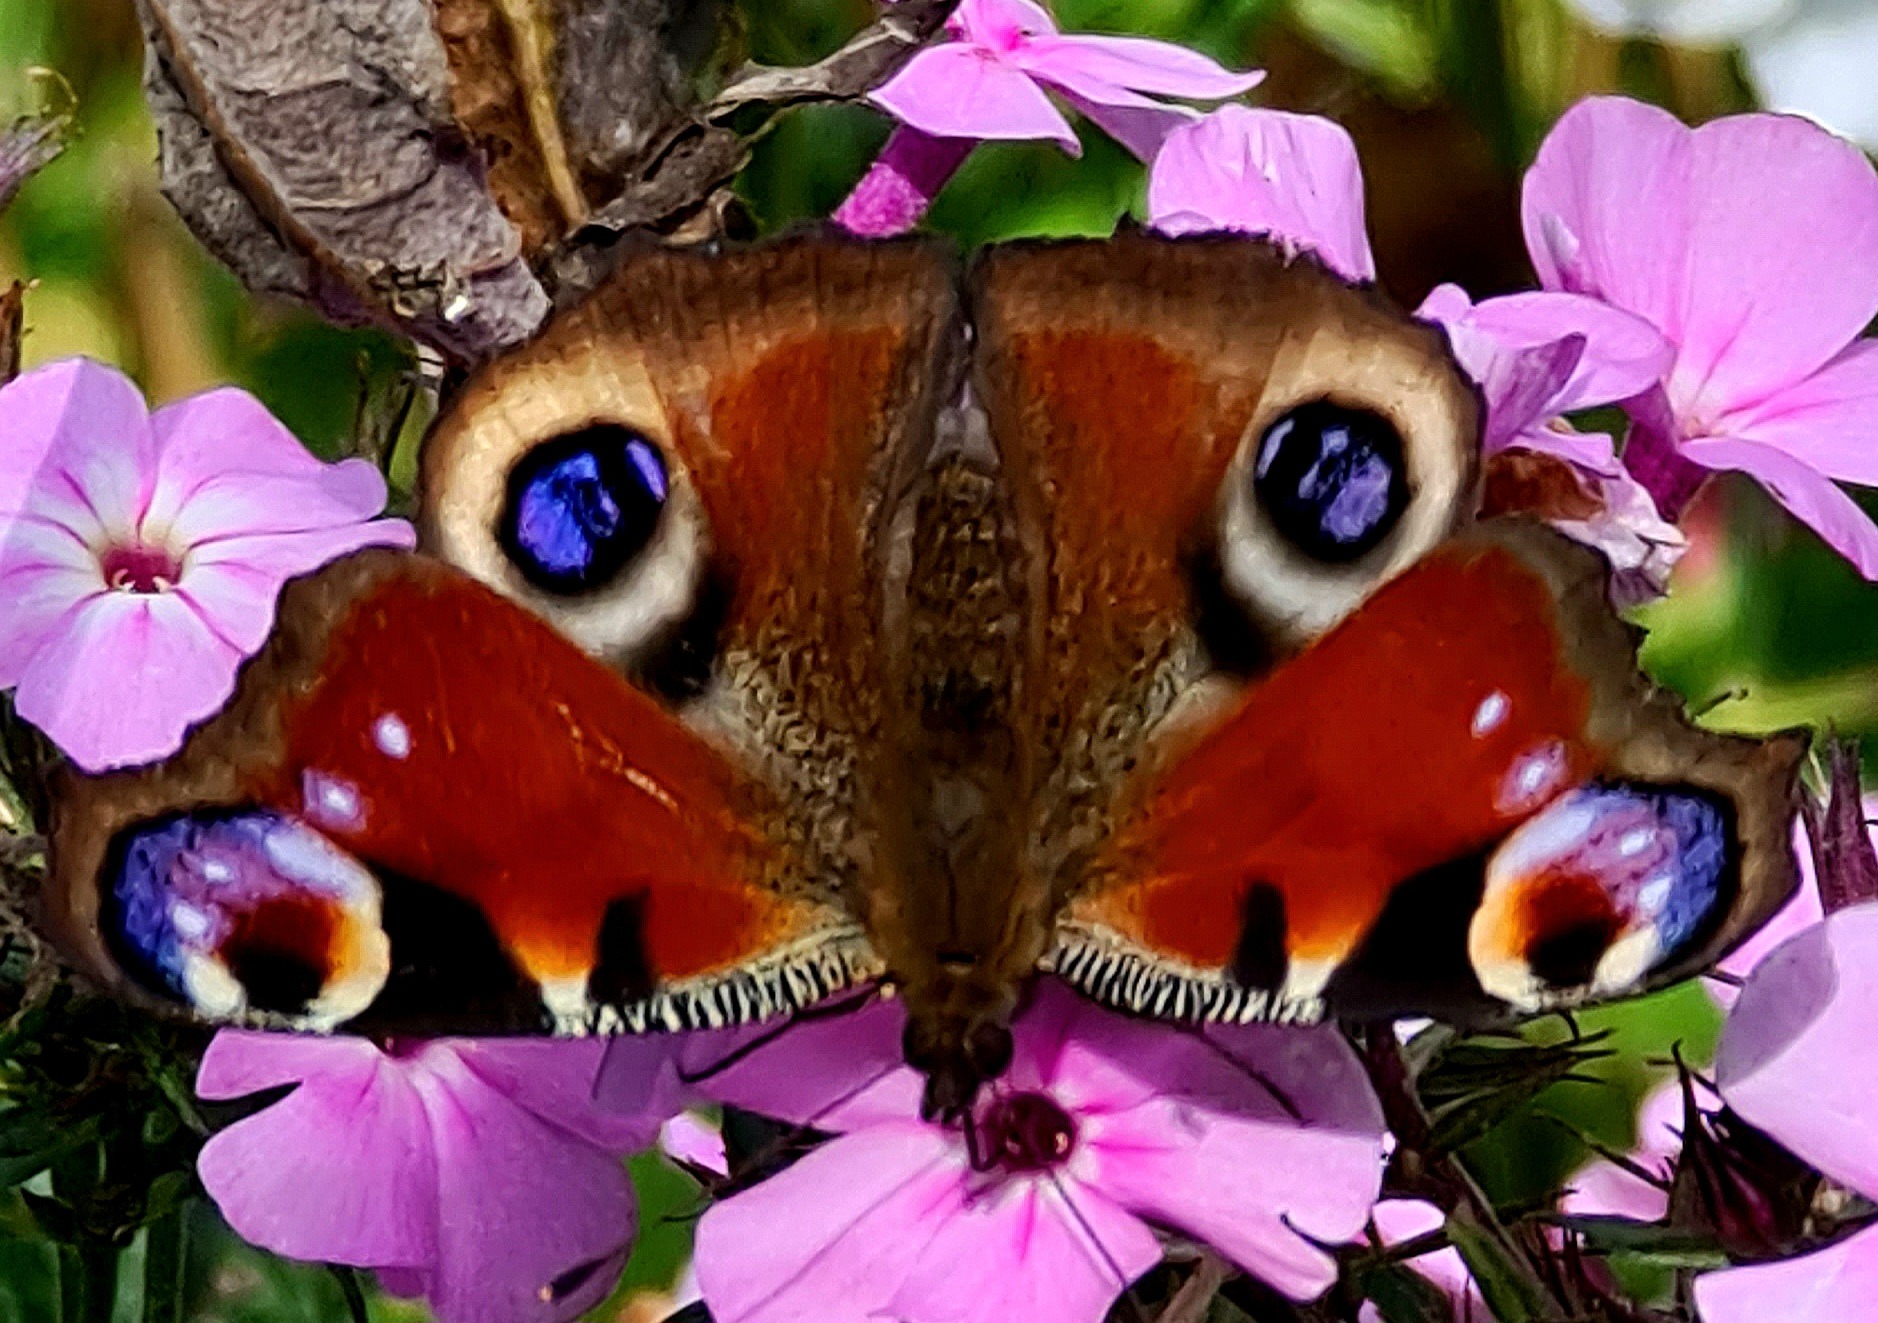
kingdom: Animalia
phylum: Arthropoda
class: Insecta
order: Lepidoptera
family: Nymphalidae
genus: Aglais
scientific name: Aglais io
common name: Dagpåfugleøje
